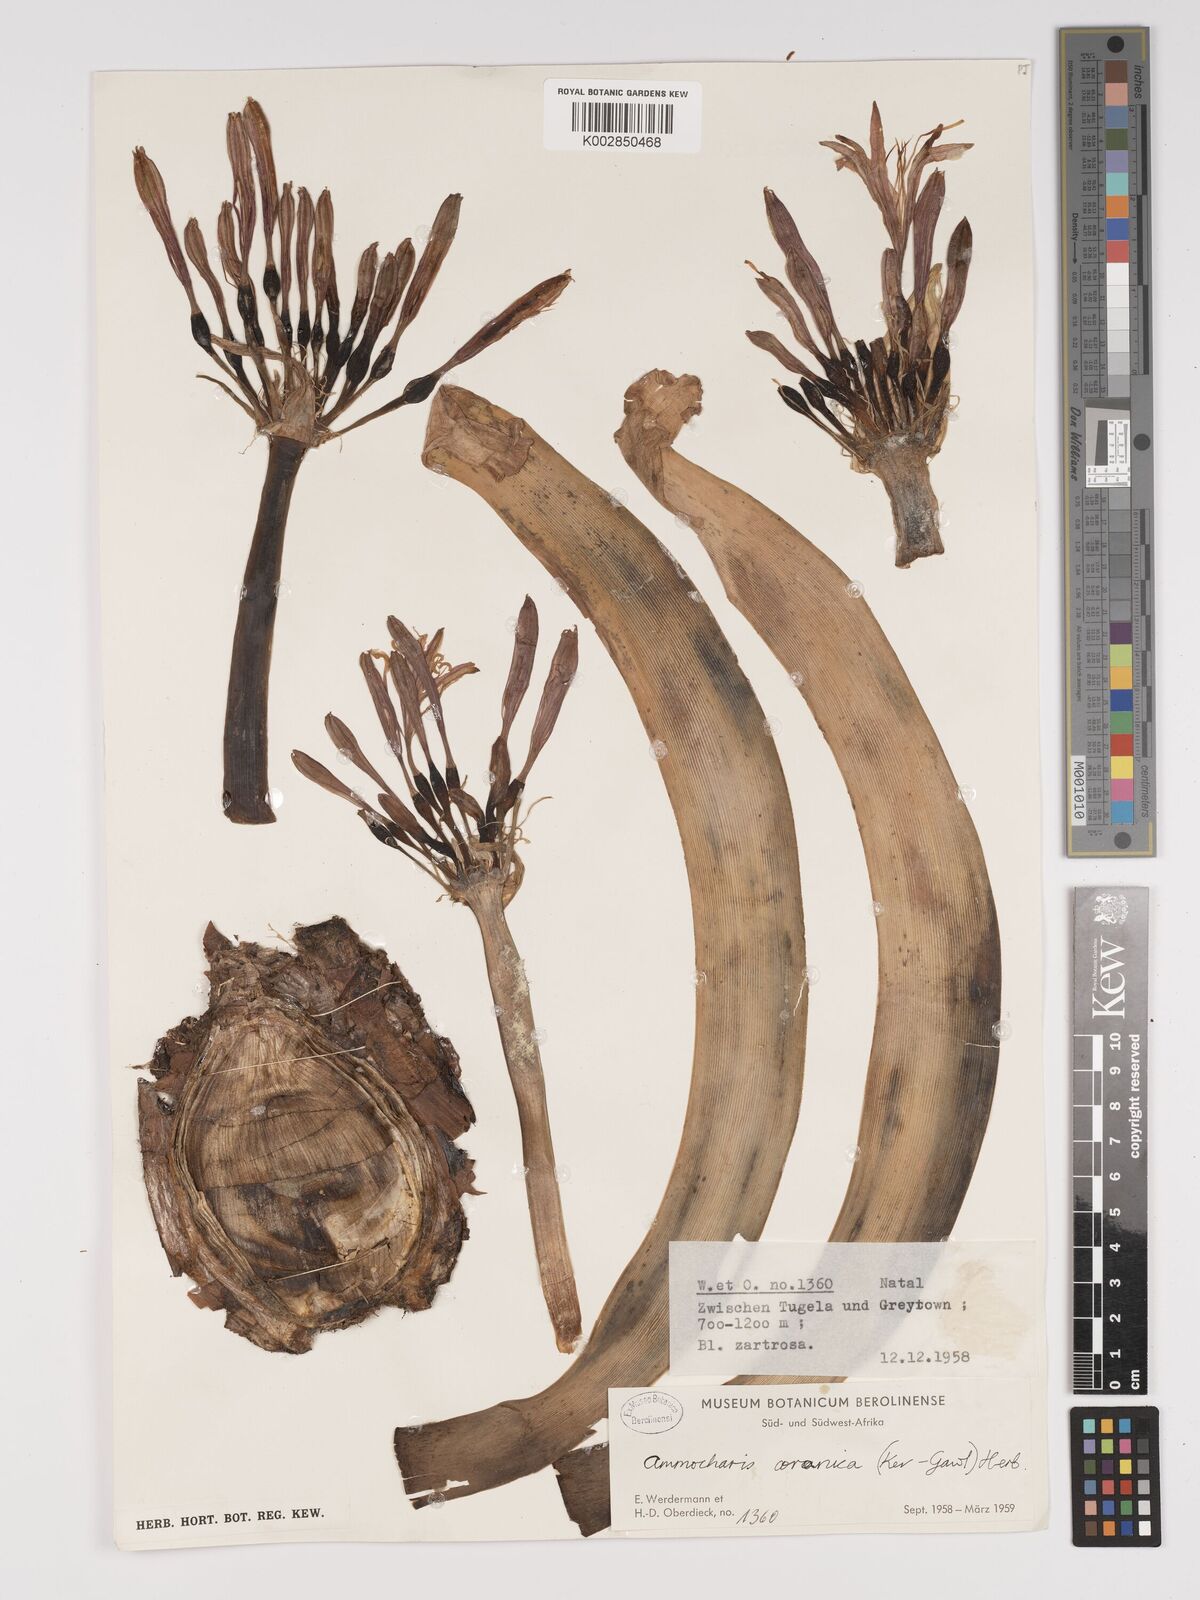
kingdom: Plantae
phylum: Tracheophyta
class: Liliopsida
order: Asparagales
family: Amaryllidaceae
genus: Ammocharis
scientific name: Ammocharis coranica
